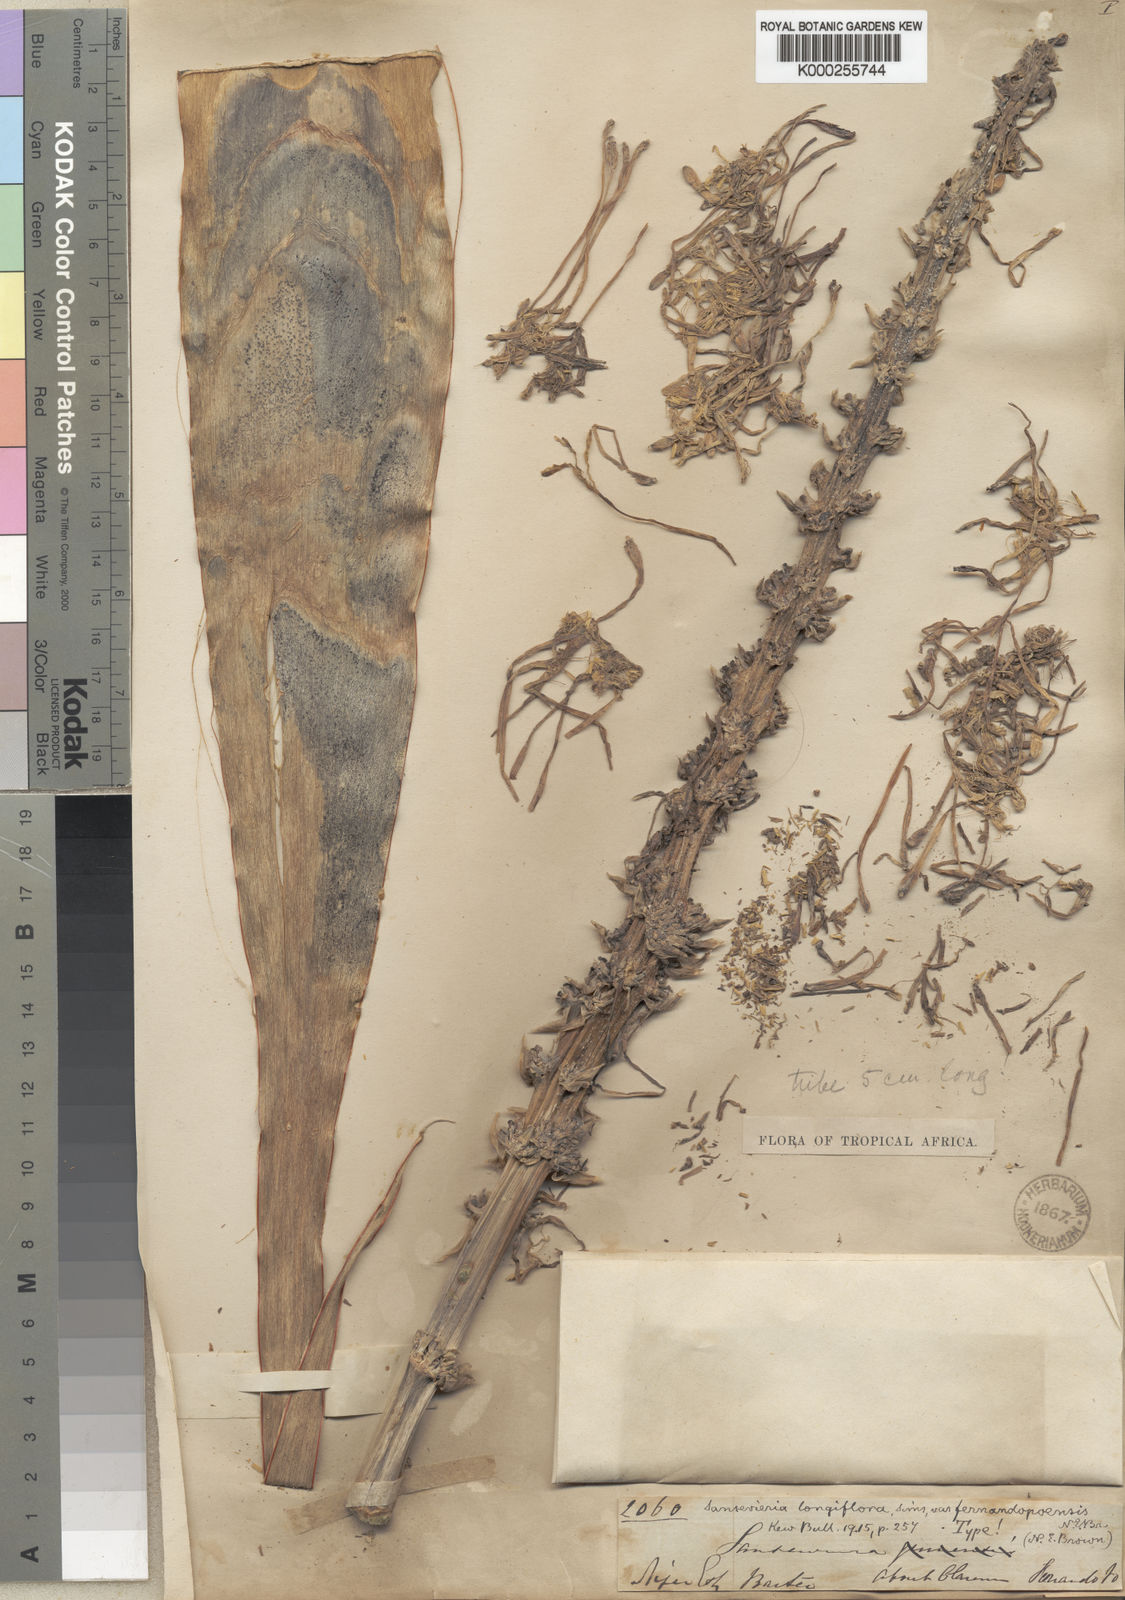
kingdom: Plantae
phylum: Tracheophyta
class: Liliopsida
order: Asparagales
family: Asparagaceae
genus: Dracaena
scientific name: Dracaena longiflora
